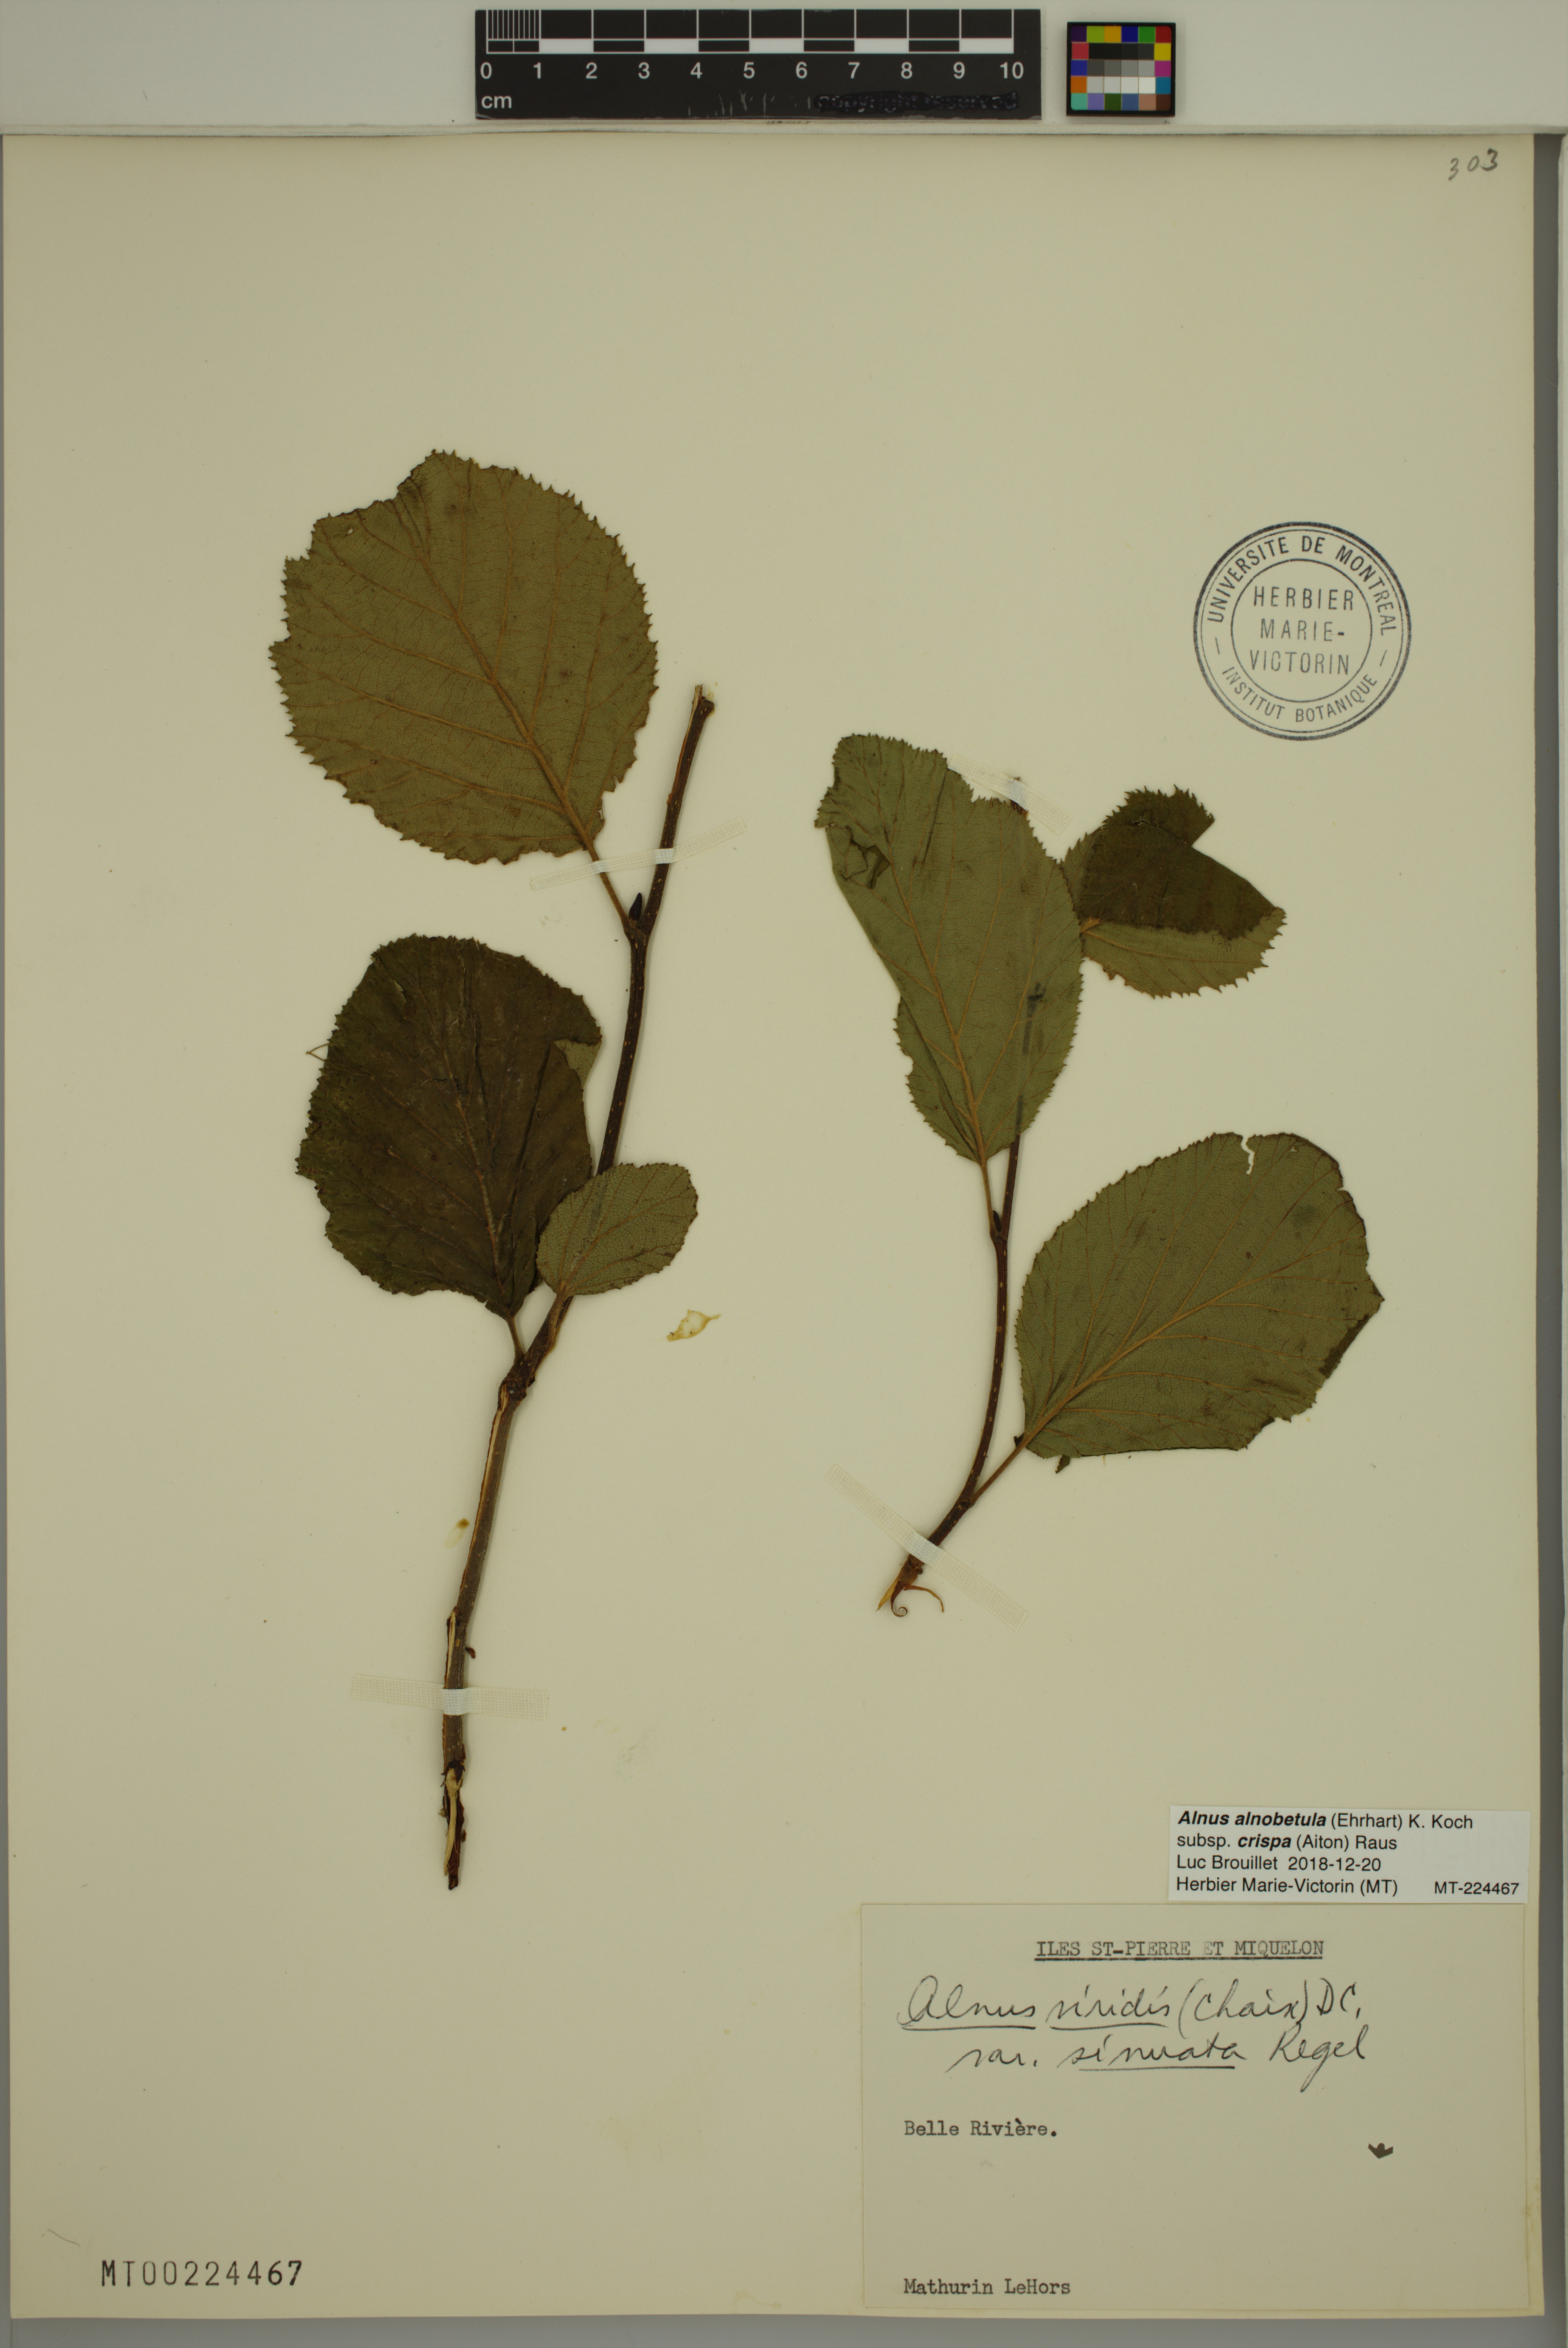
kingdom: Plantae
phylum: Tracheophyta
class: Magnoliopsida
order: Fagales
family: Betulaceae
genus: Alnus
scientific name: Alnus alnobetula
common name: Green alder
